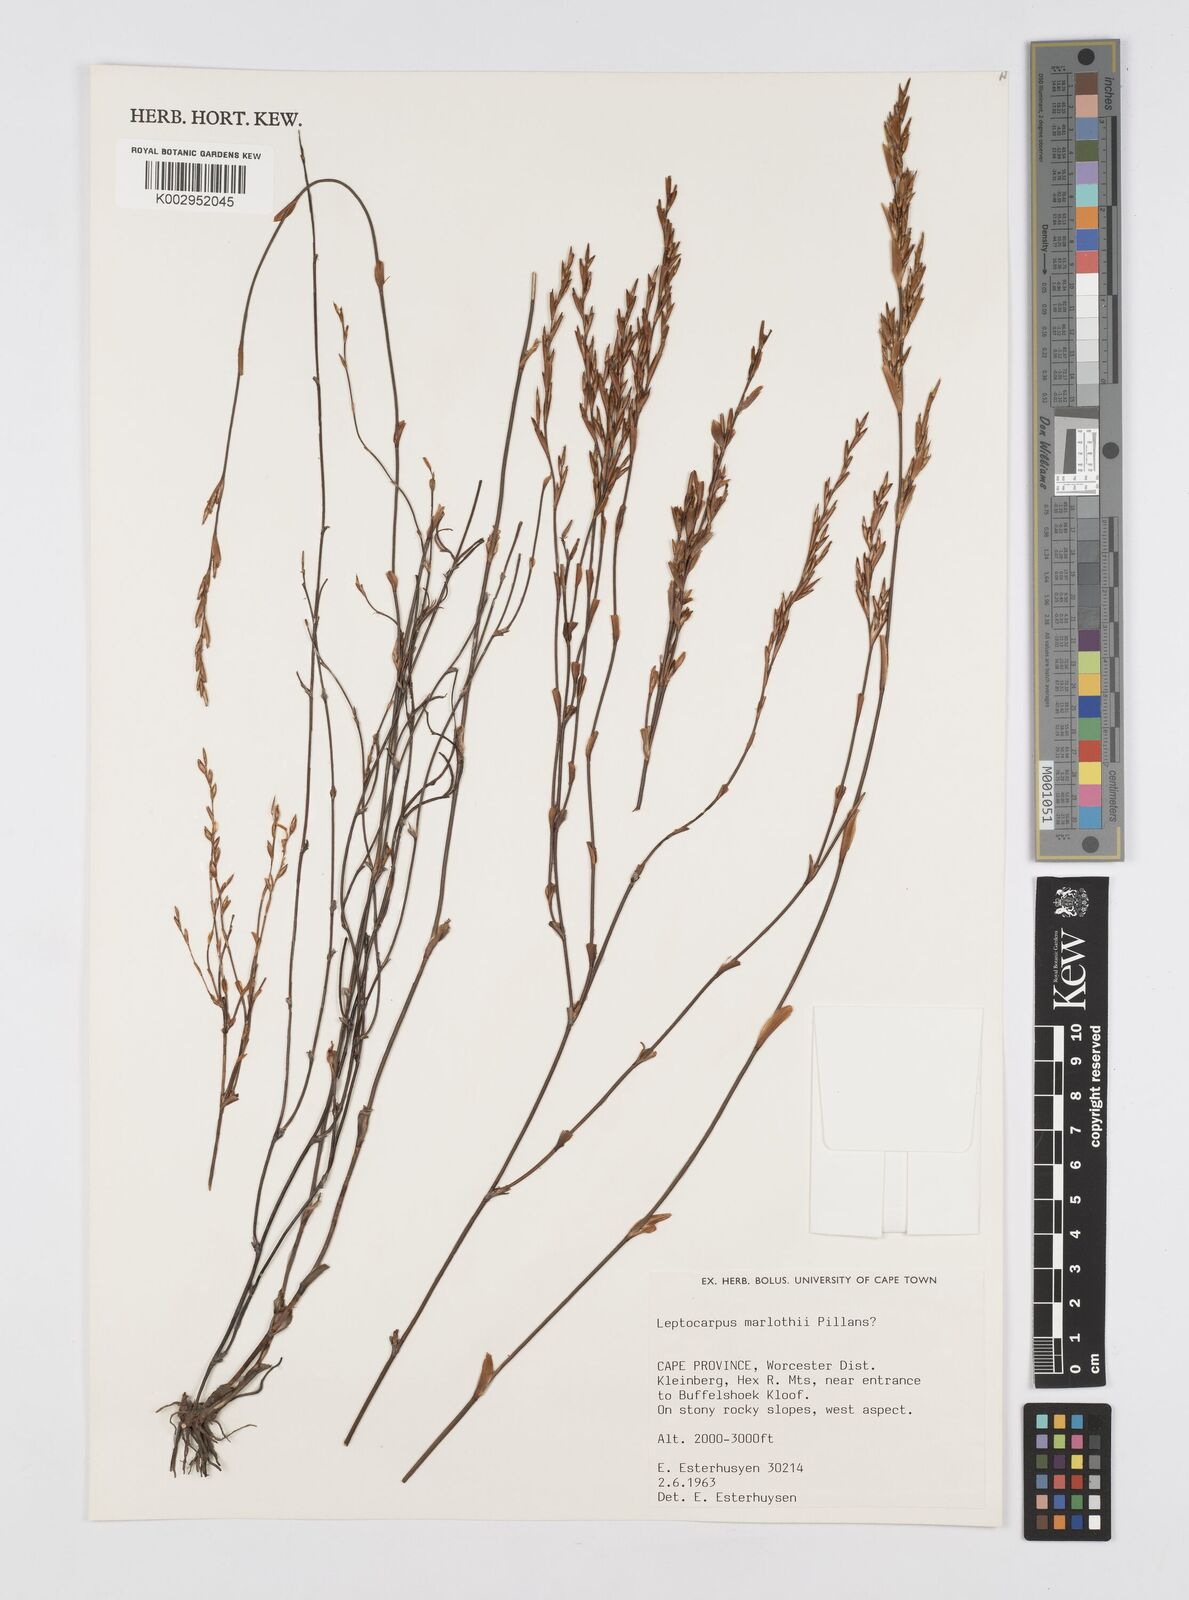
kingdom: Plantae
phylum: Tracheophyta
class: Liliopsida
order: Poales
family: Restionaceae
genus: Restio
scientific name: Restio marlothii
